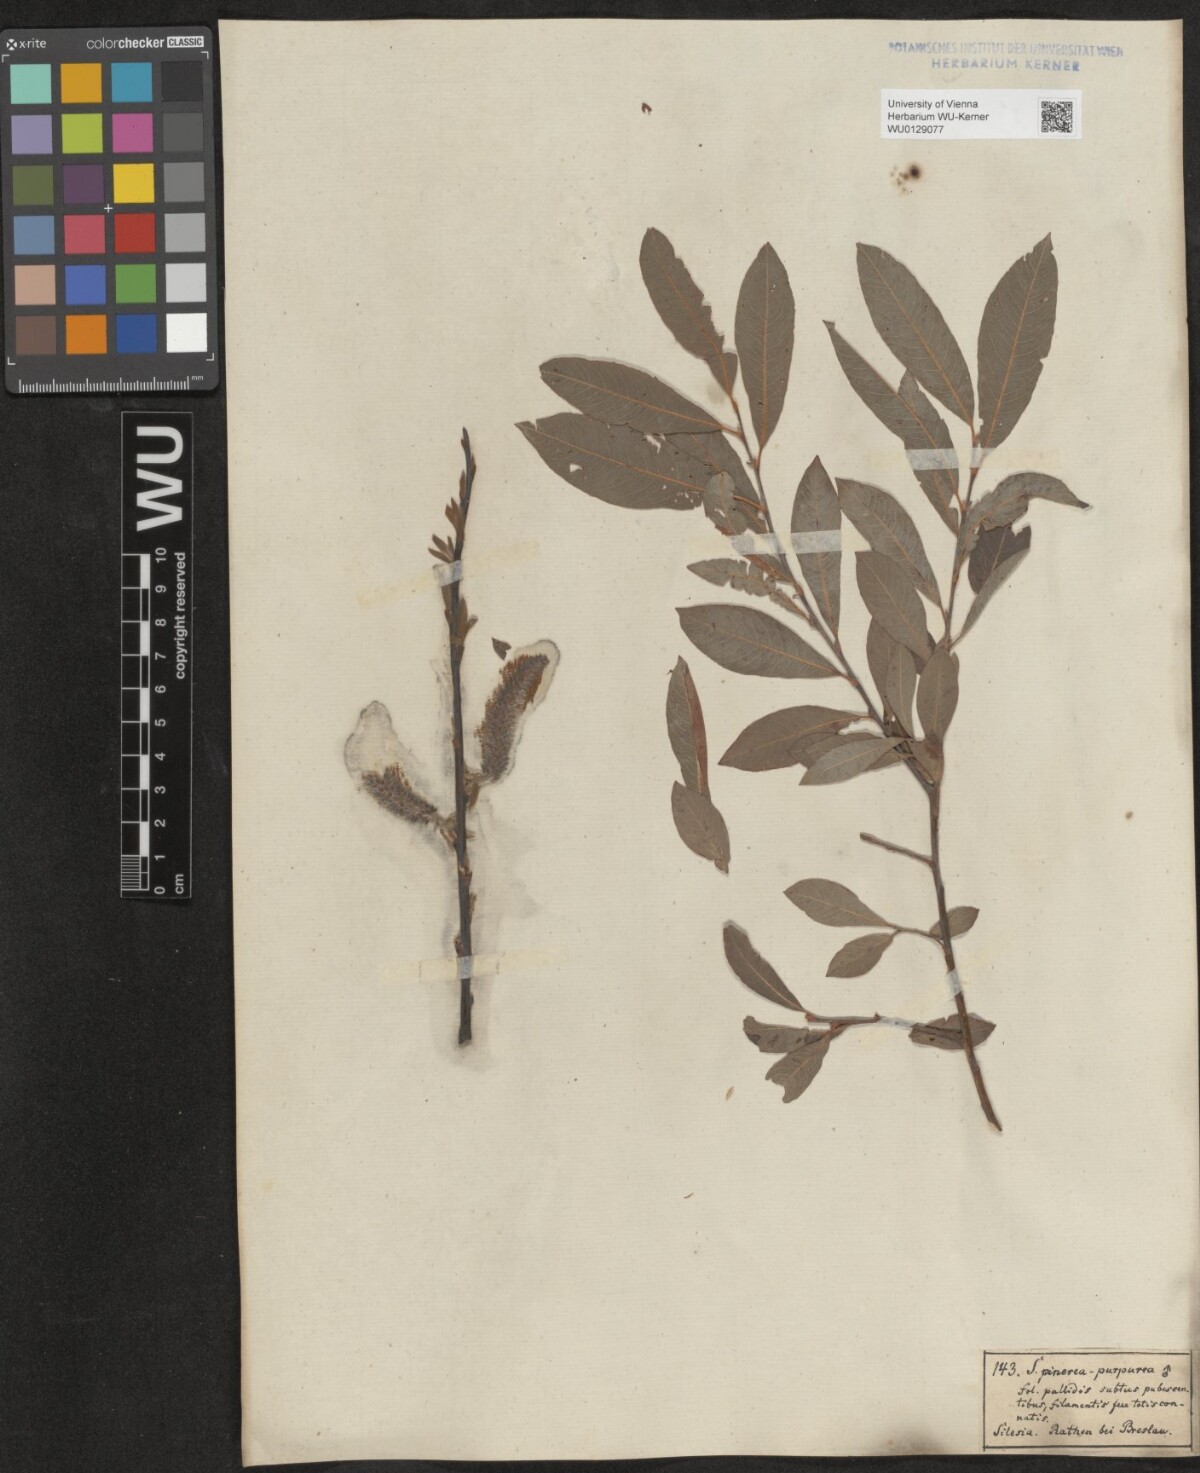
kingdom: Plantae
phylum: Tracheophyta
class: Magnoliopsida
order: Malpighiales
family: Salicaceae
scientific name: Salicaceae
